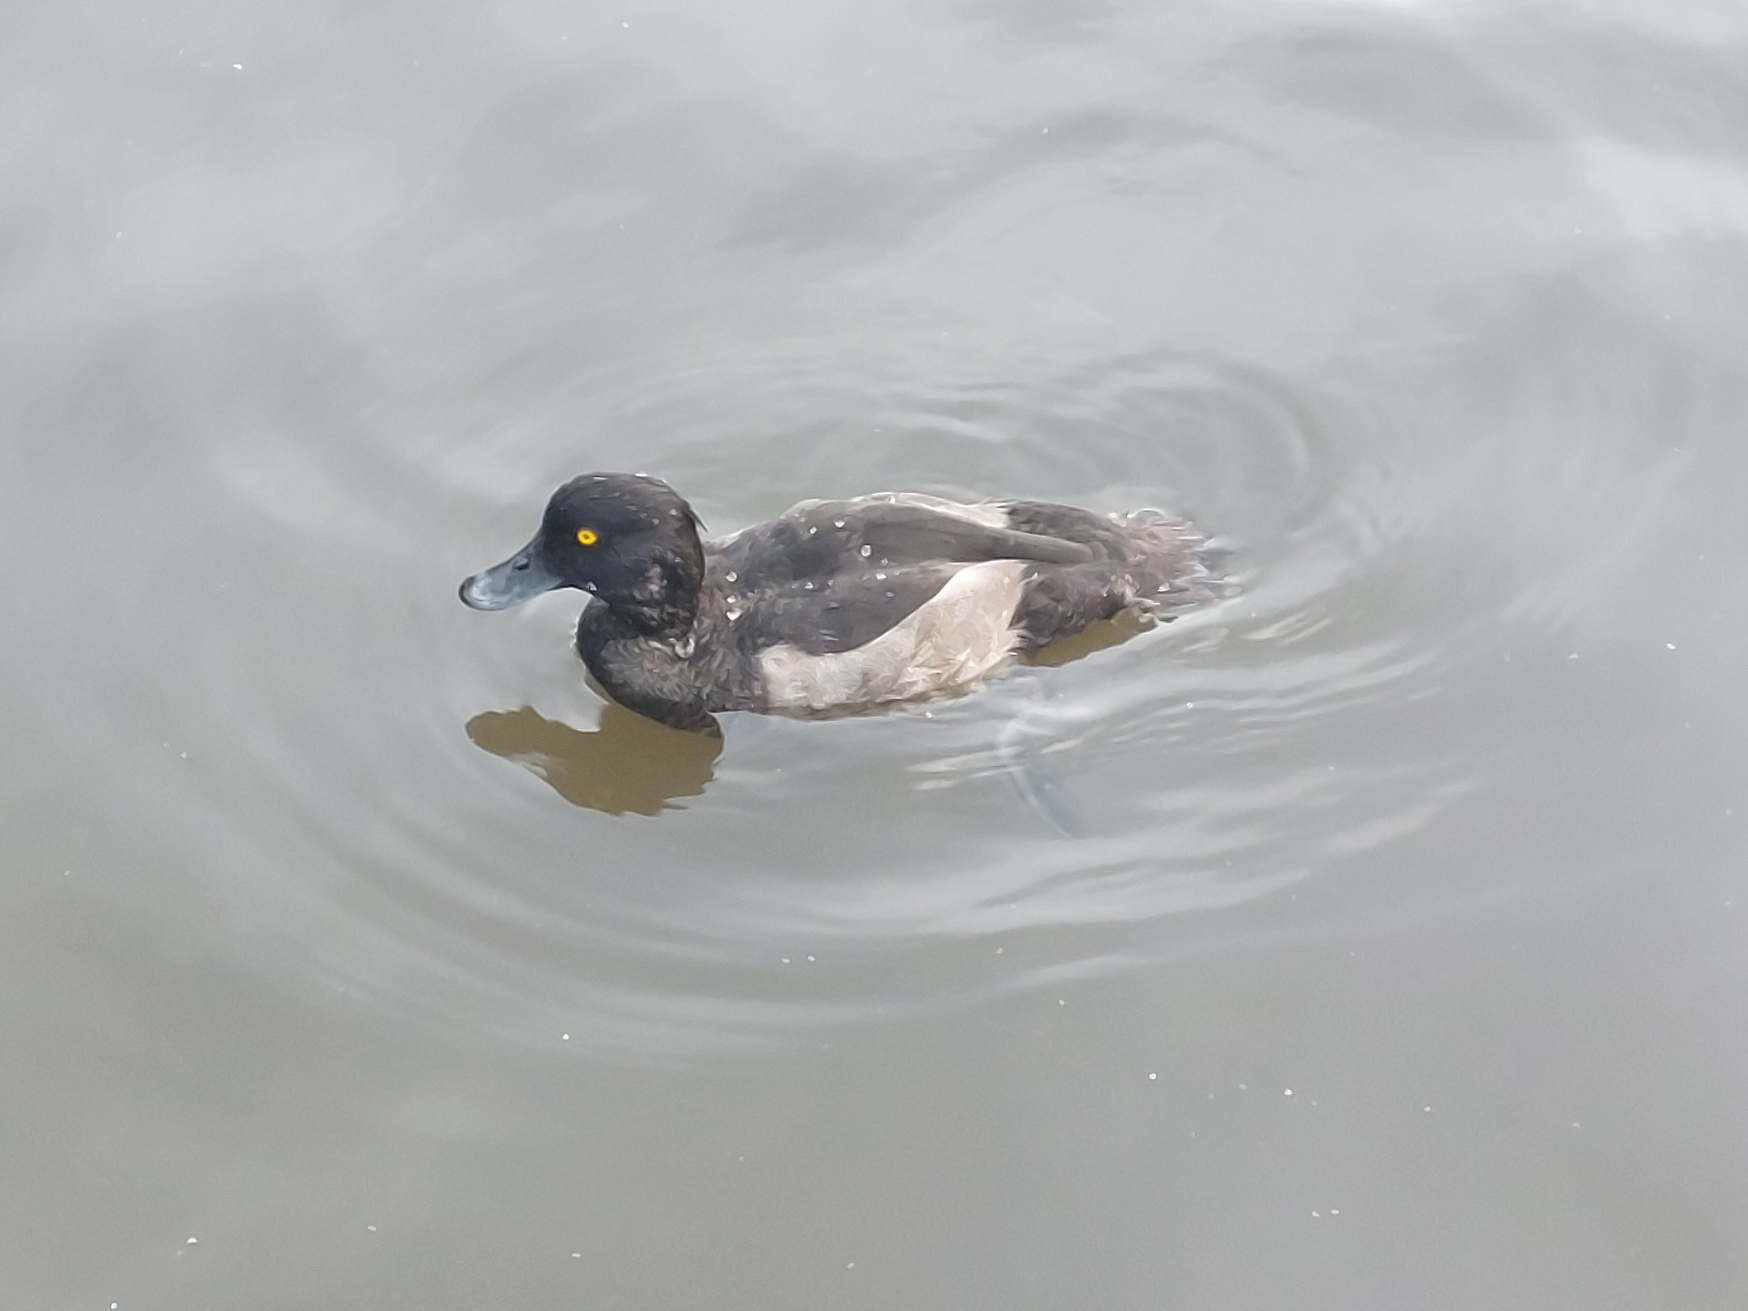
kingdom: Animalia
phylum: Chordata
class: Aves
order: Anseriformes
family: Anatidae
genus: Aythya
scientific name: Aythya fuligula
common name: Troldand
